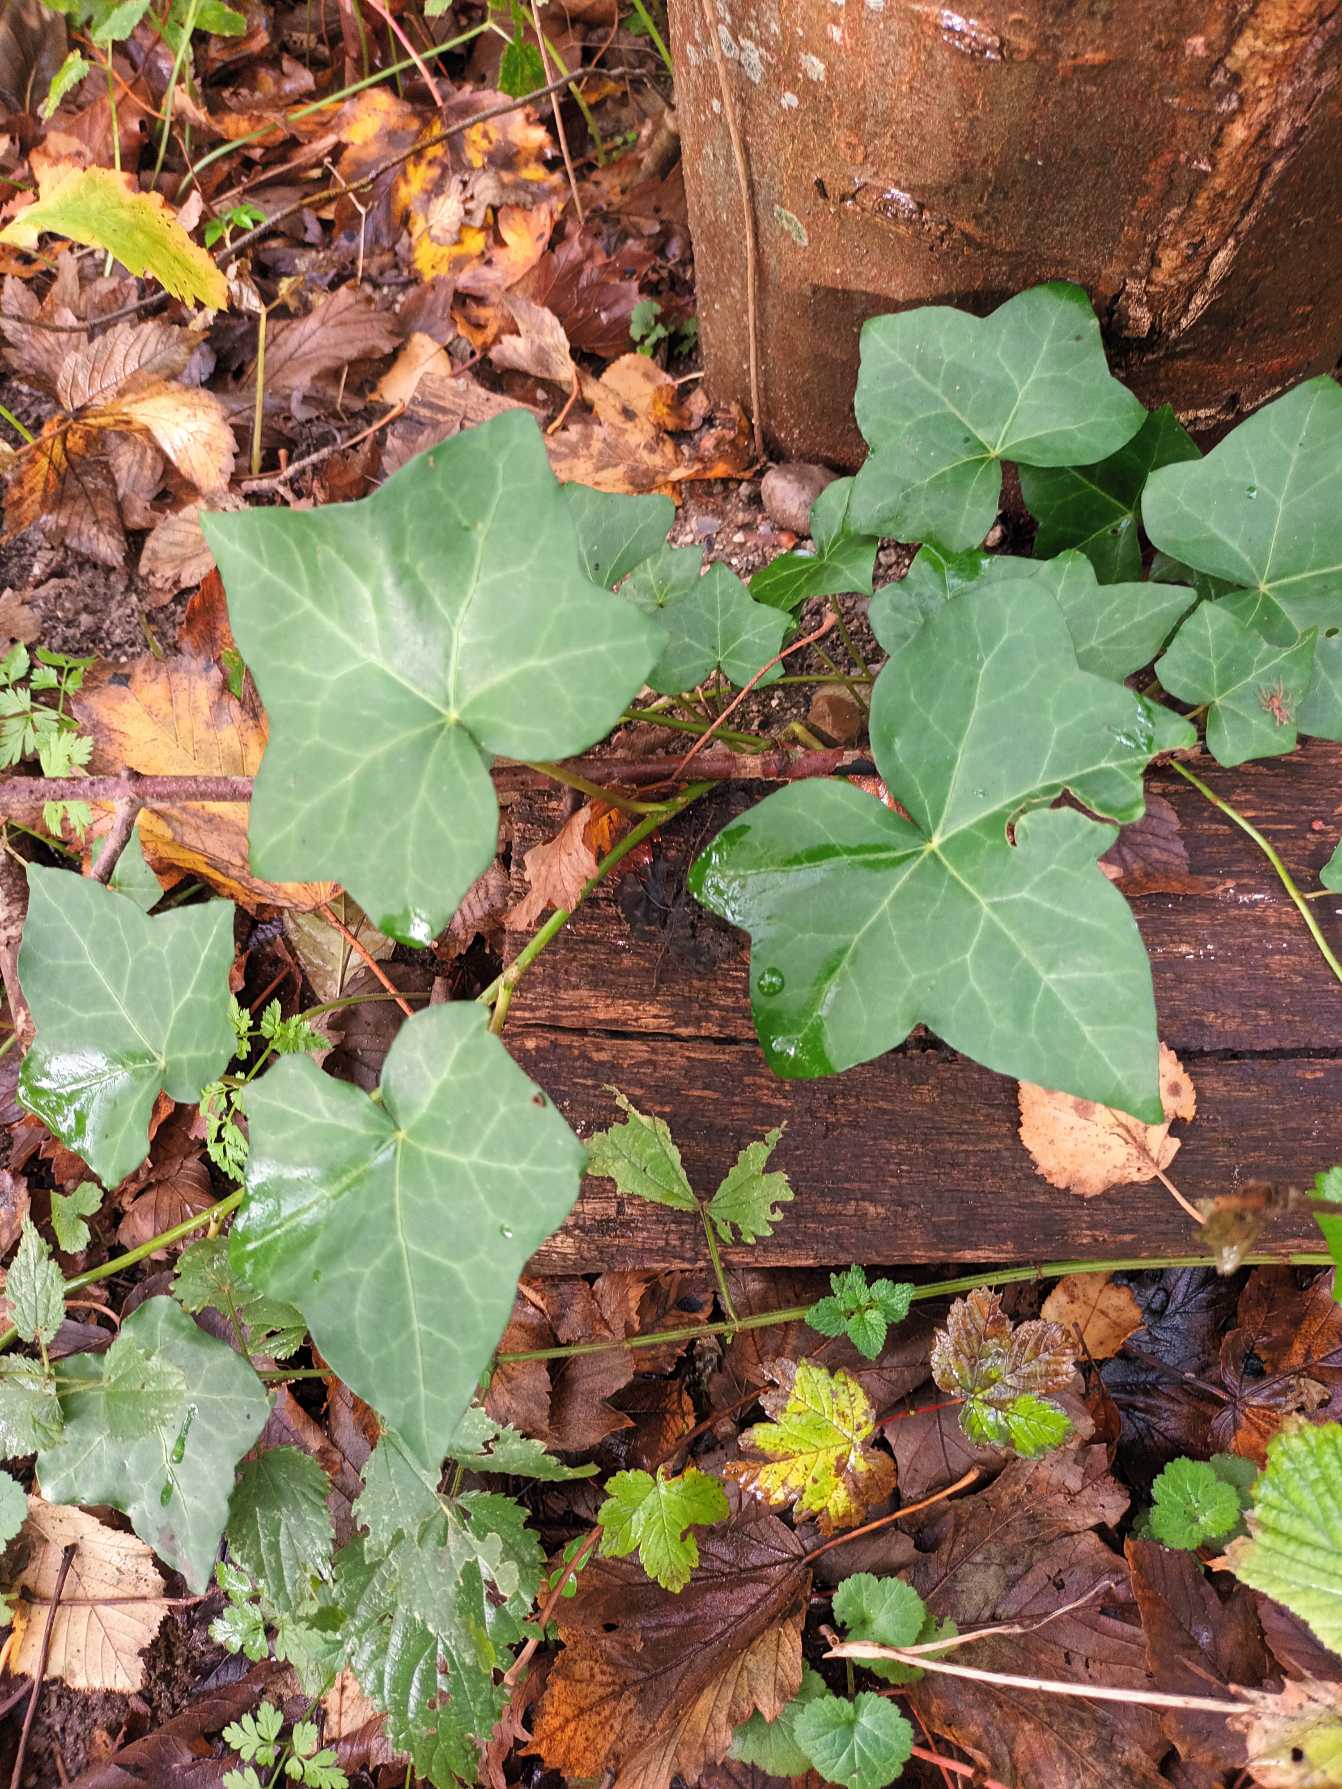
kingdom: Plantae
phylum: Tracheophyta
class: Magnoliopsida
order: Apiales
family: Araliaceae
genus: Hedera
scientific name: Hedera hibernica
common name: Irsk vedbend
